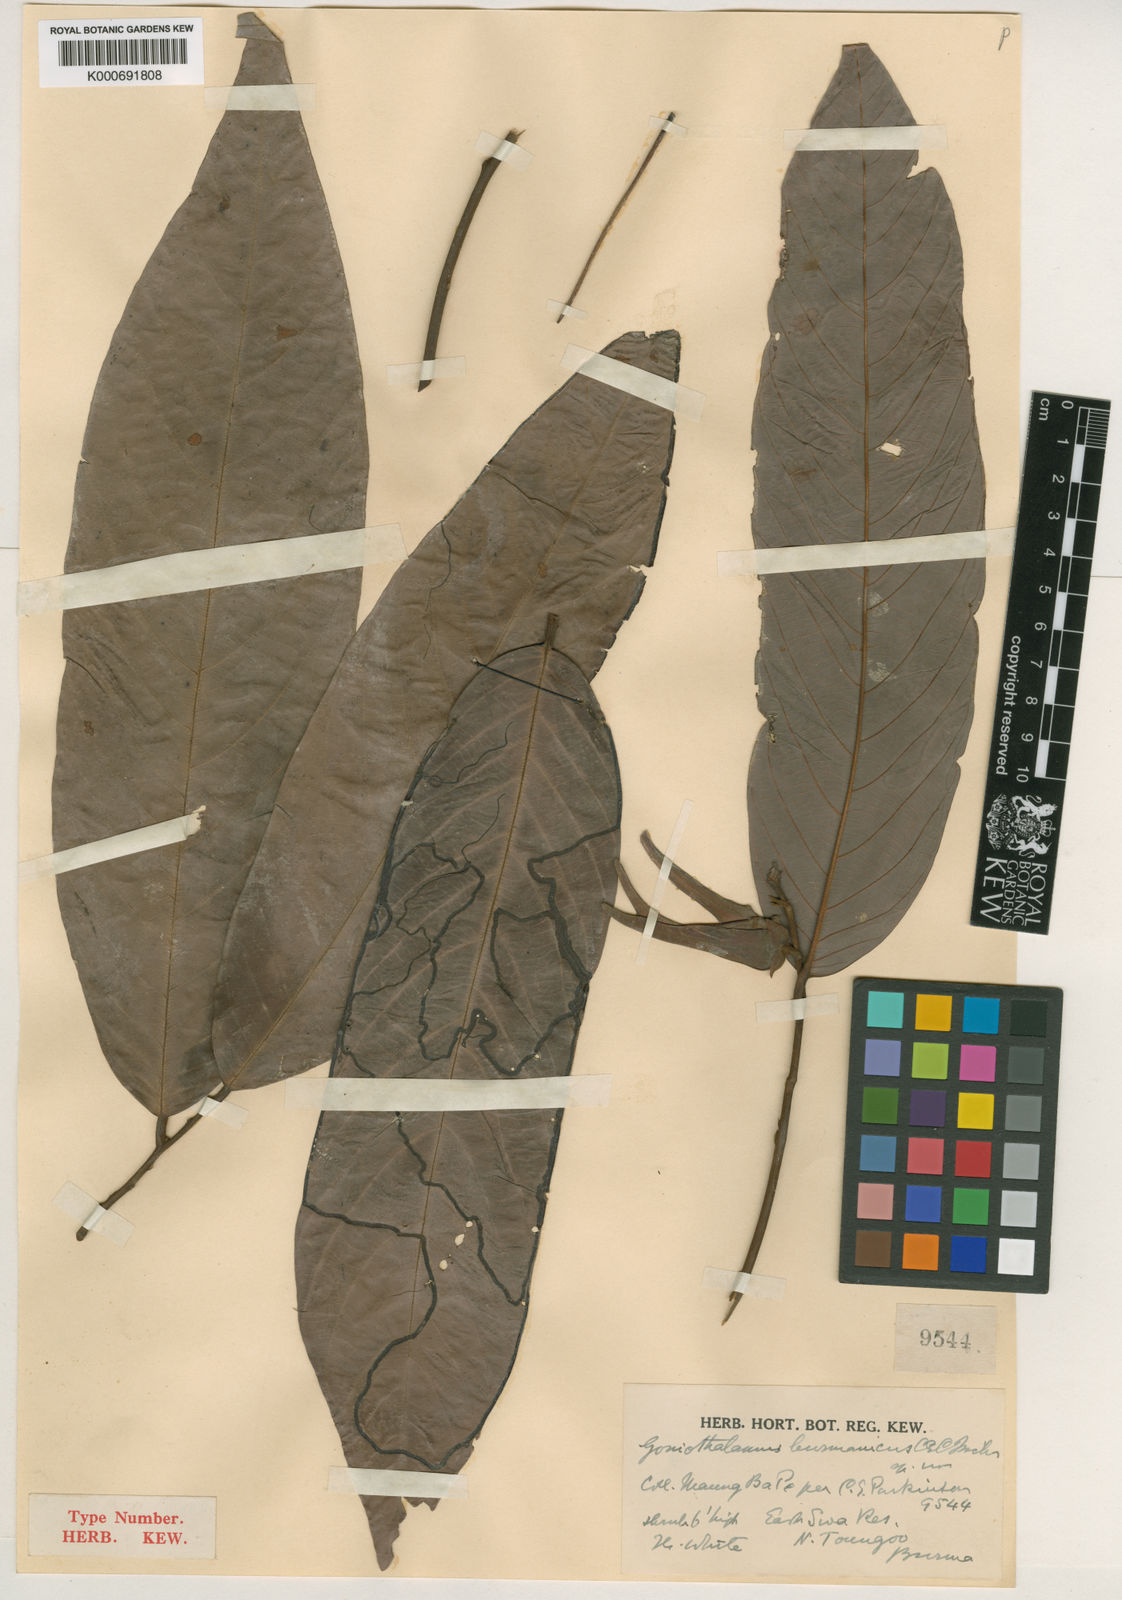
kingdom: Plantae
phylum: Tracheophyta
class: Magnoliopsida
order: Magnoliales
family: Annonaceae
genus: Friesodielsia
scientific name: Friesodielsia maclellandii
